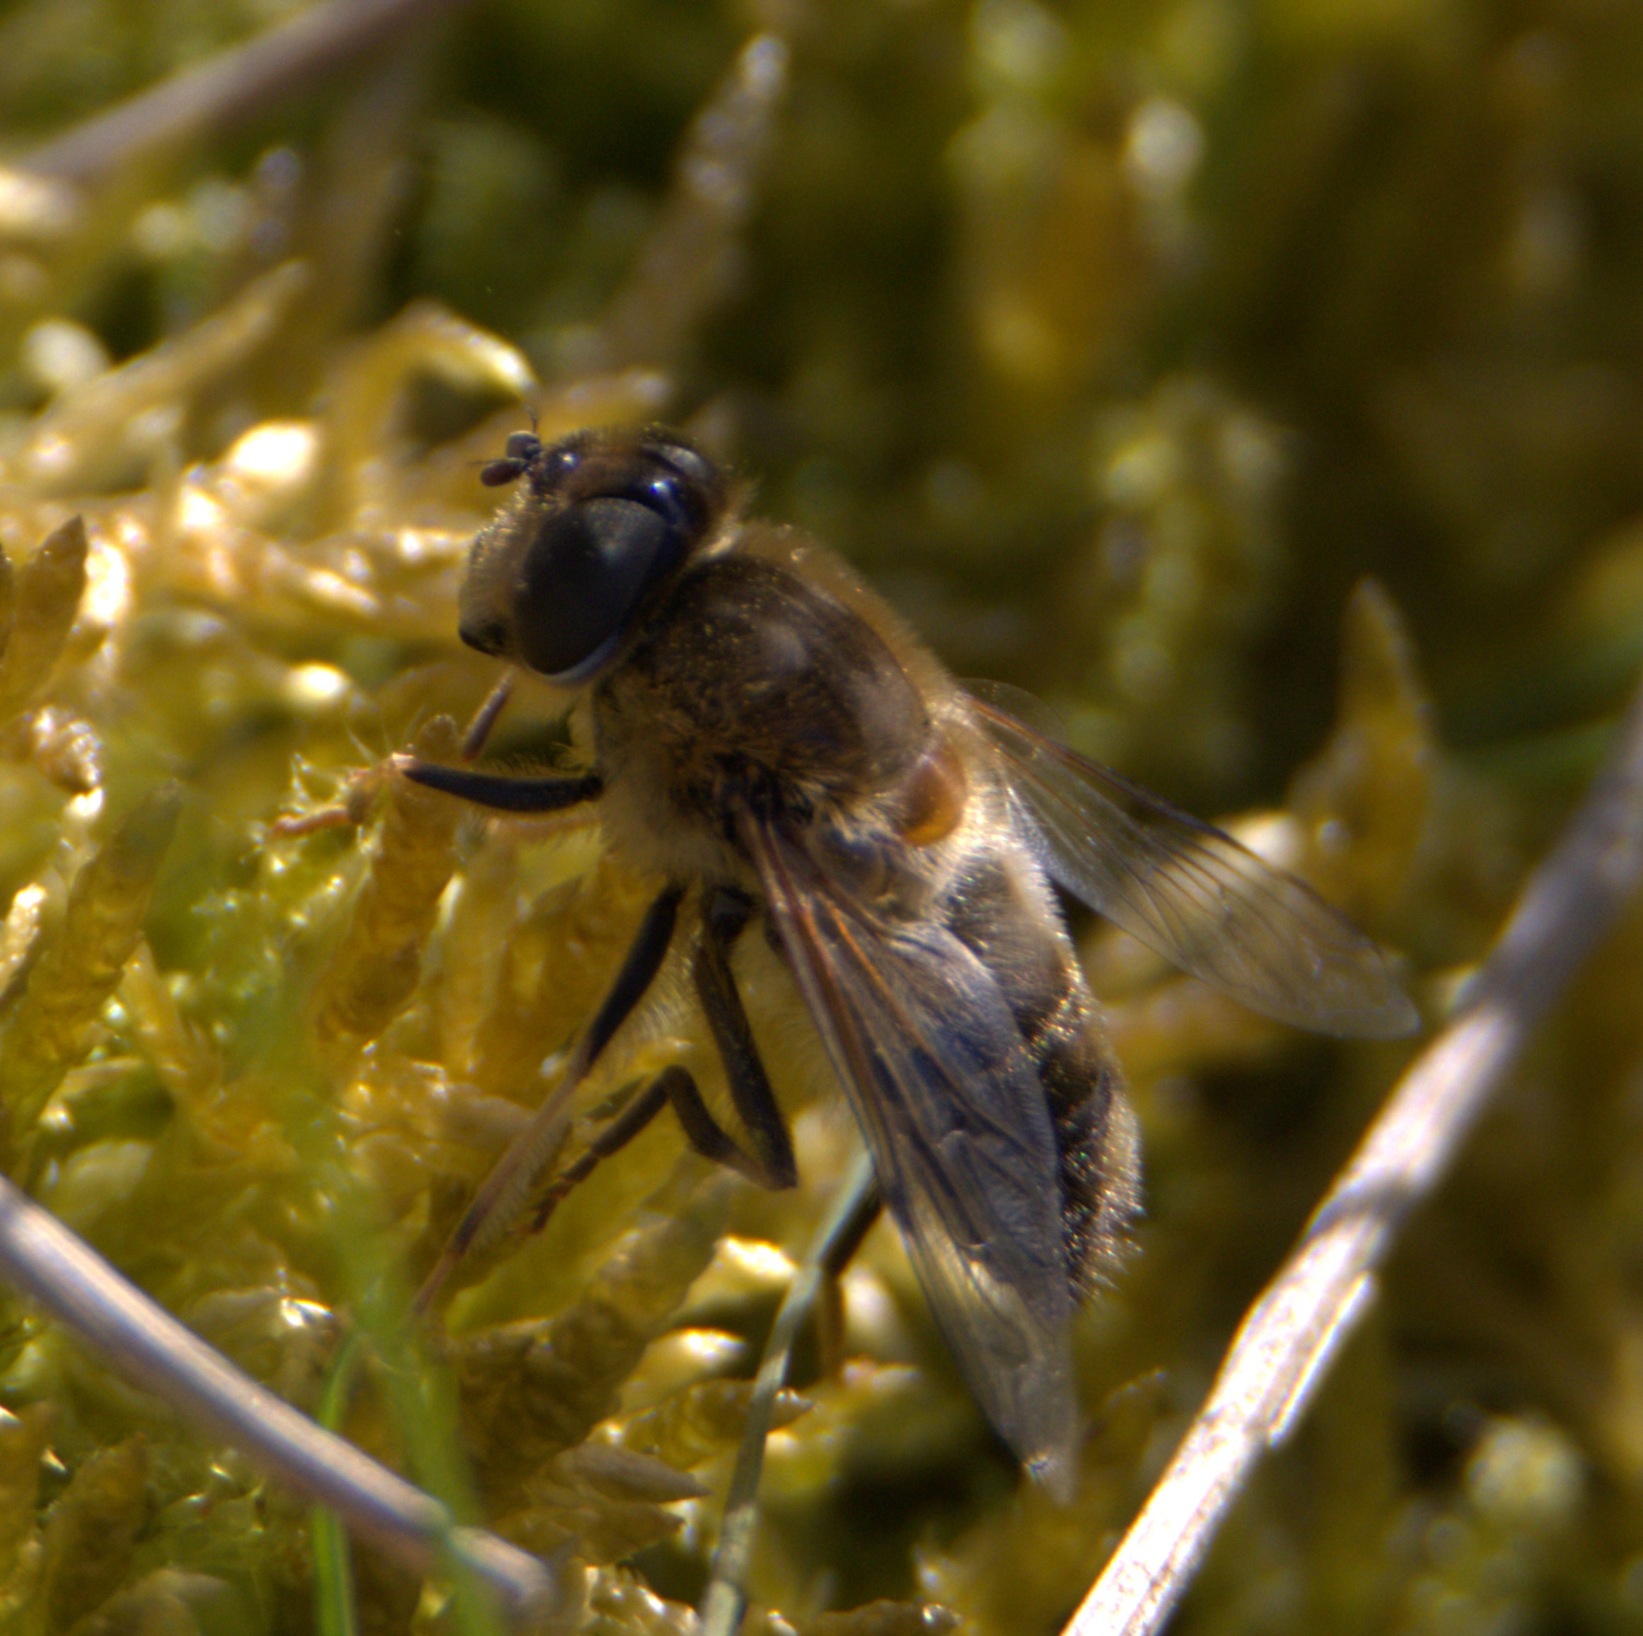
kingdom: Animalia
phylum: Arthropoda
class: Insecta
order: Diptera
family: Syrphidae
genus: Eristalis
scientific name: Eristalis pertinax
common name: Gulfodet dyndflue
